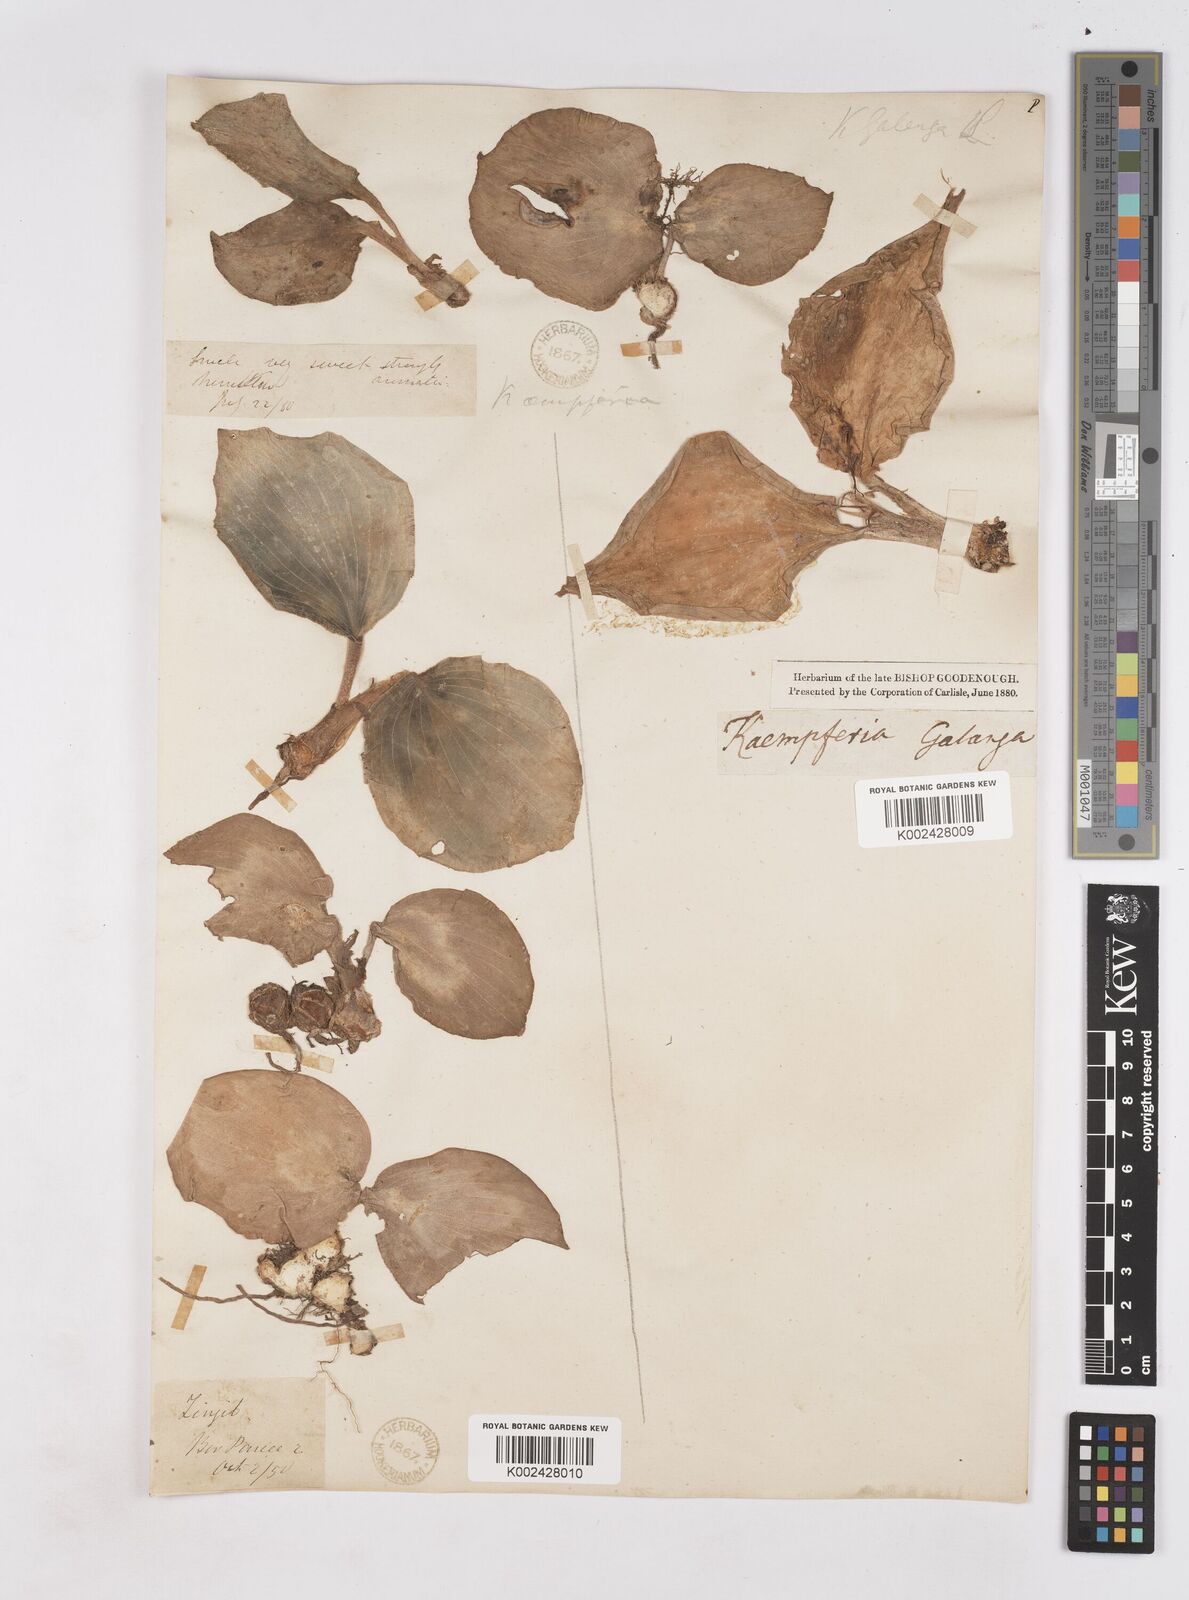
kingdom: Plantae
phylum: Tracheophyta
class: Liliopsida
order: Zingiberales
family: Zingiberaceae
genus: Kaempferia
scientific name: Kaempferia galanga
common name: Aromatic ginger
